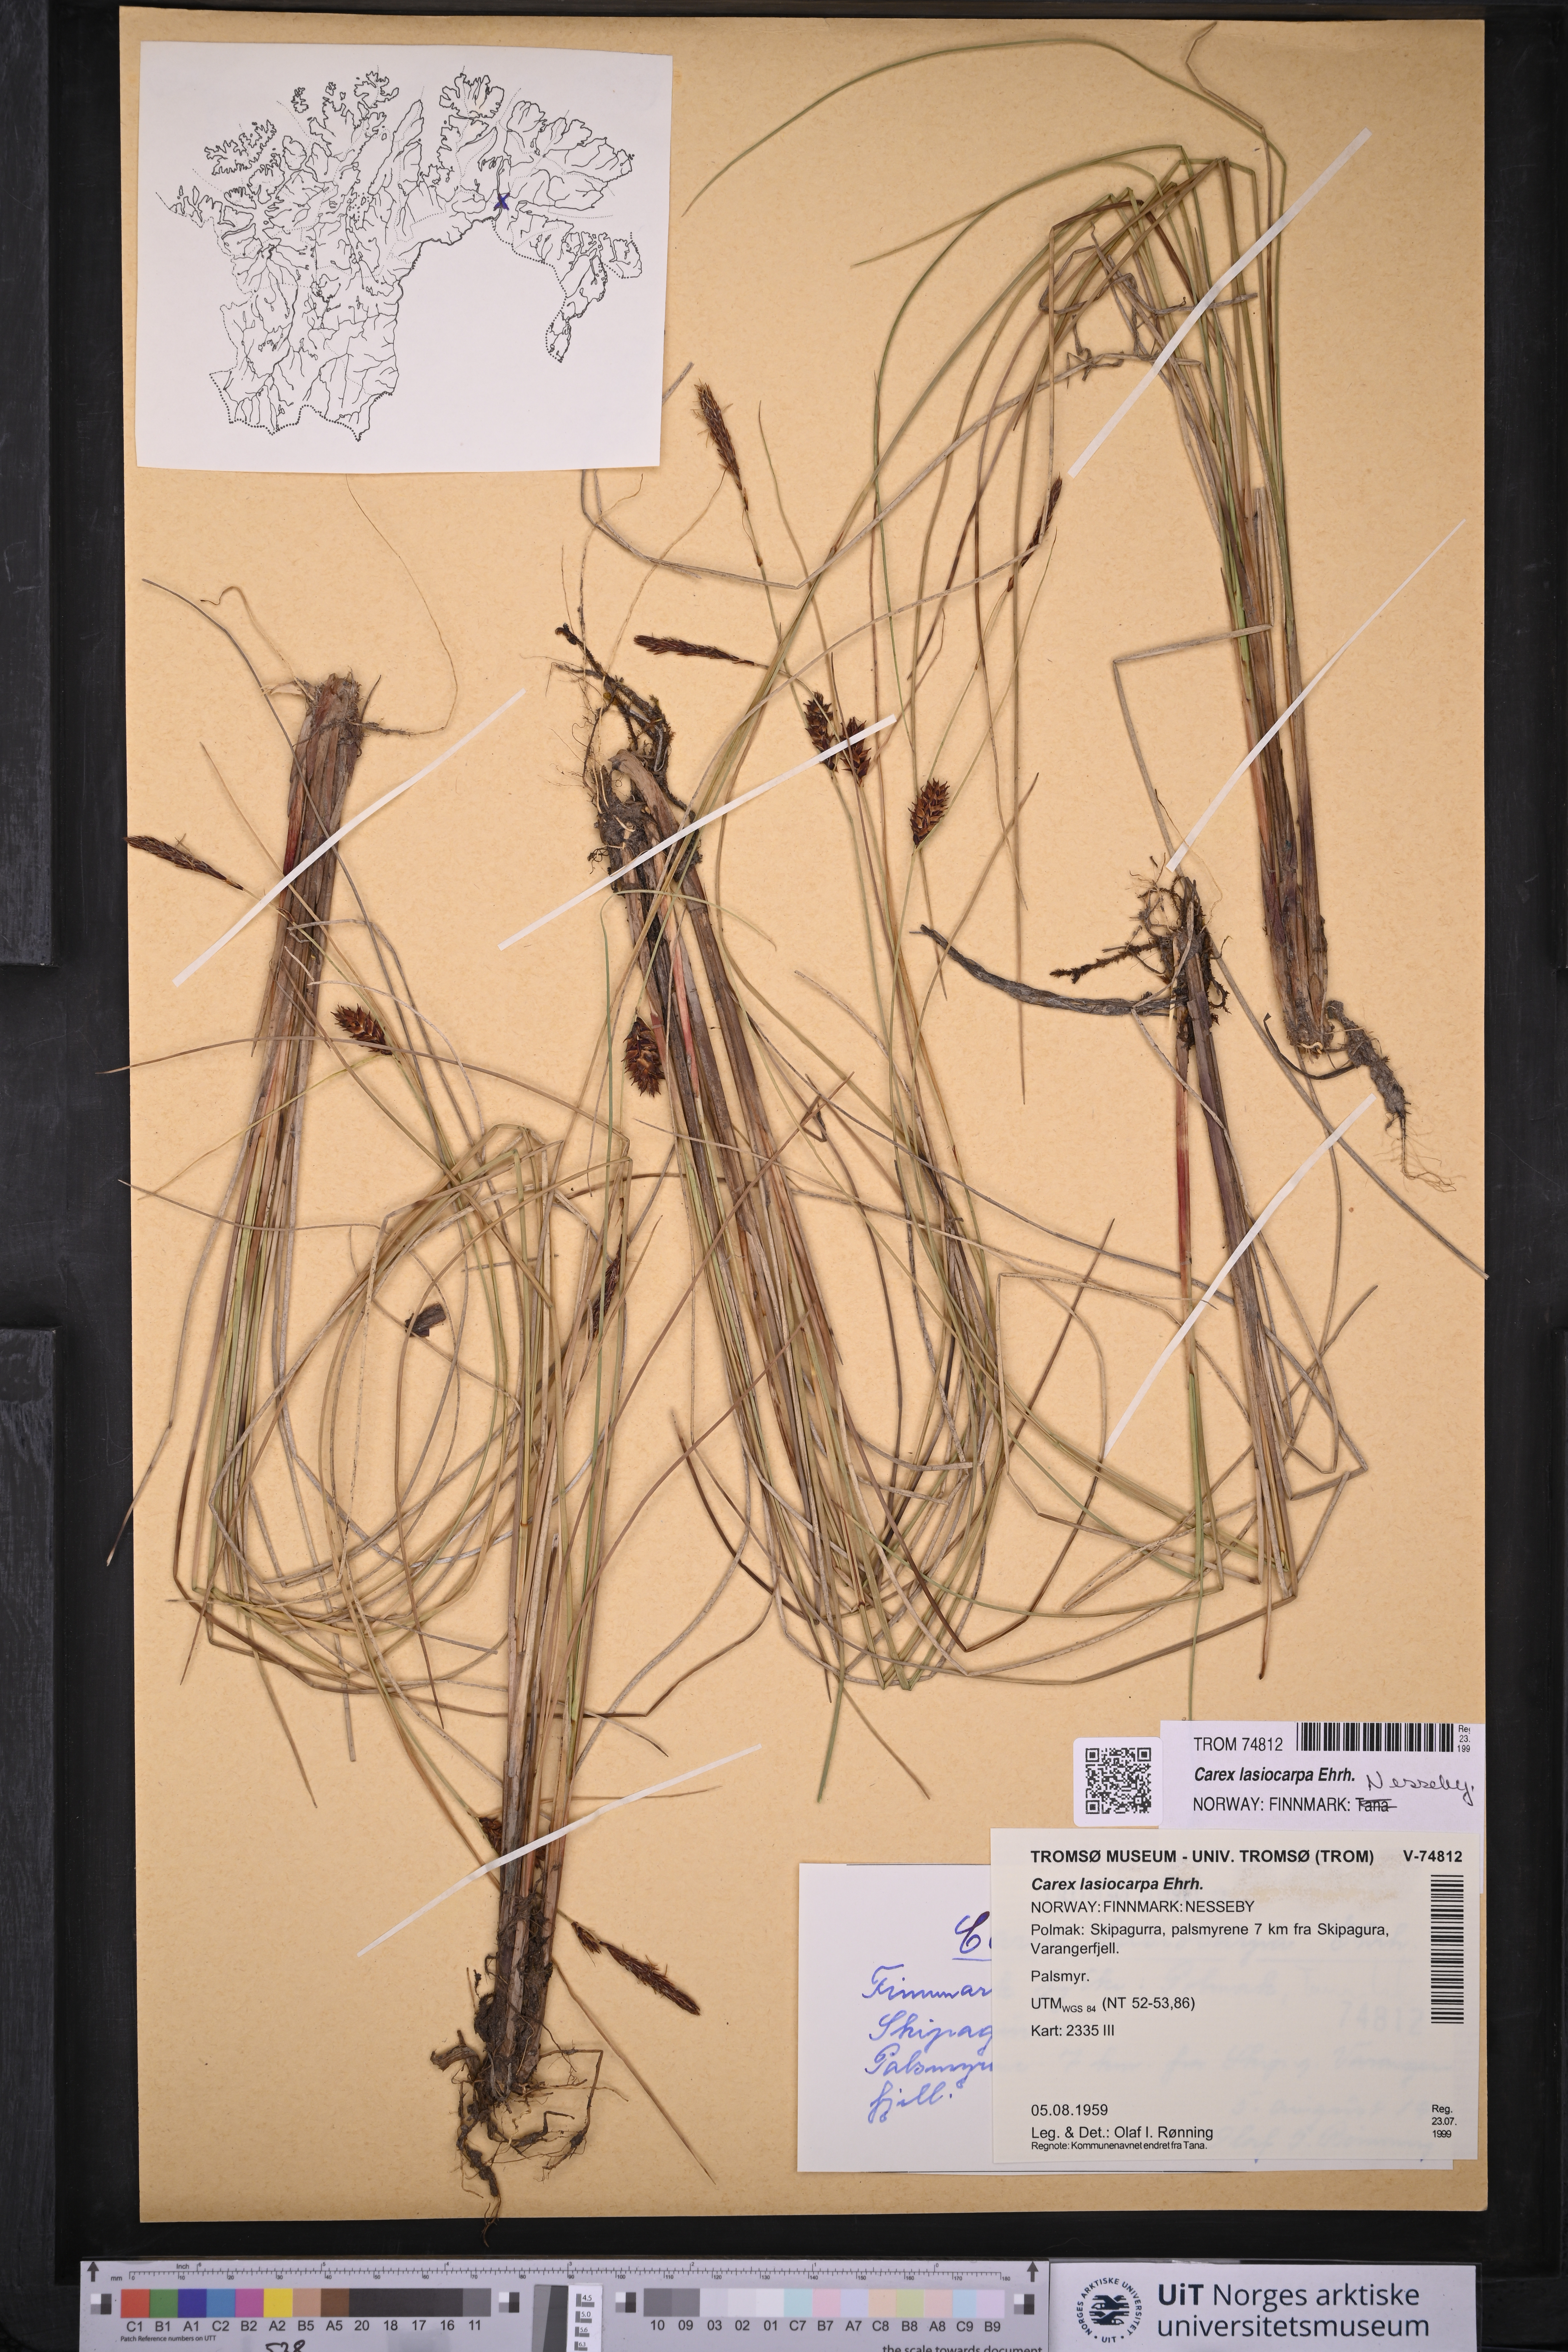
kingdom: Plantae
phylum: Tracheophyta
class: Liliopsida
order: Poales
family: Cyperaceae
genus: Carex
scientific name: Carex lasiocarpa
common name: Slender sedge
